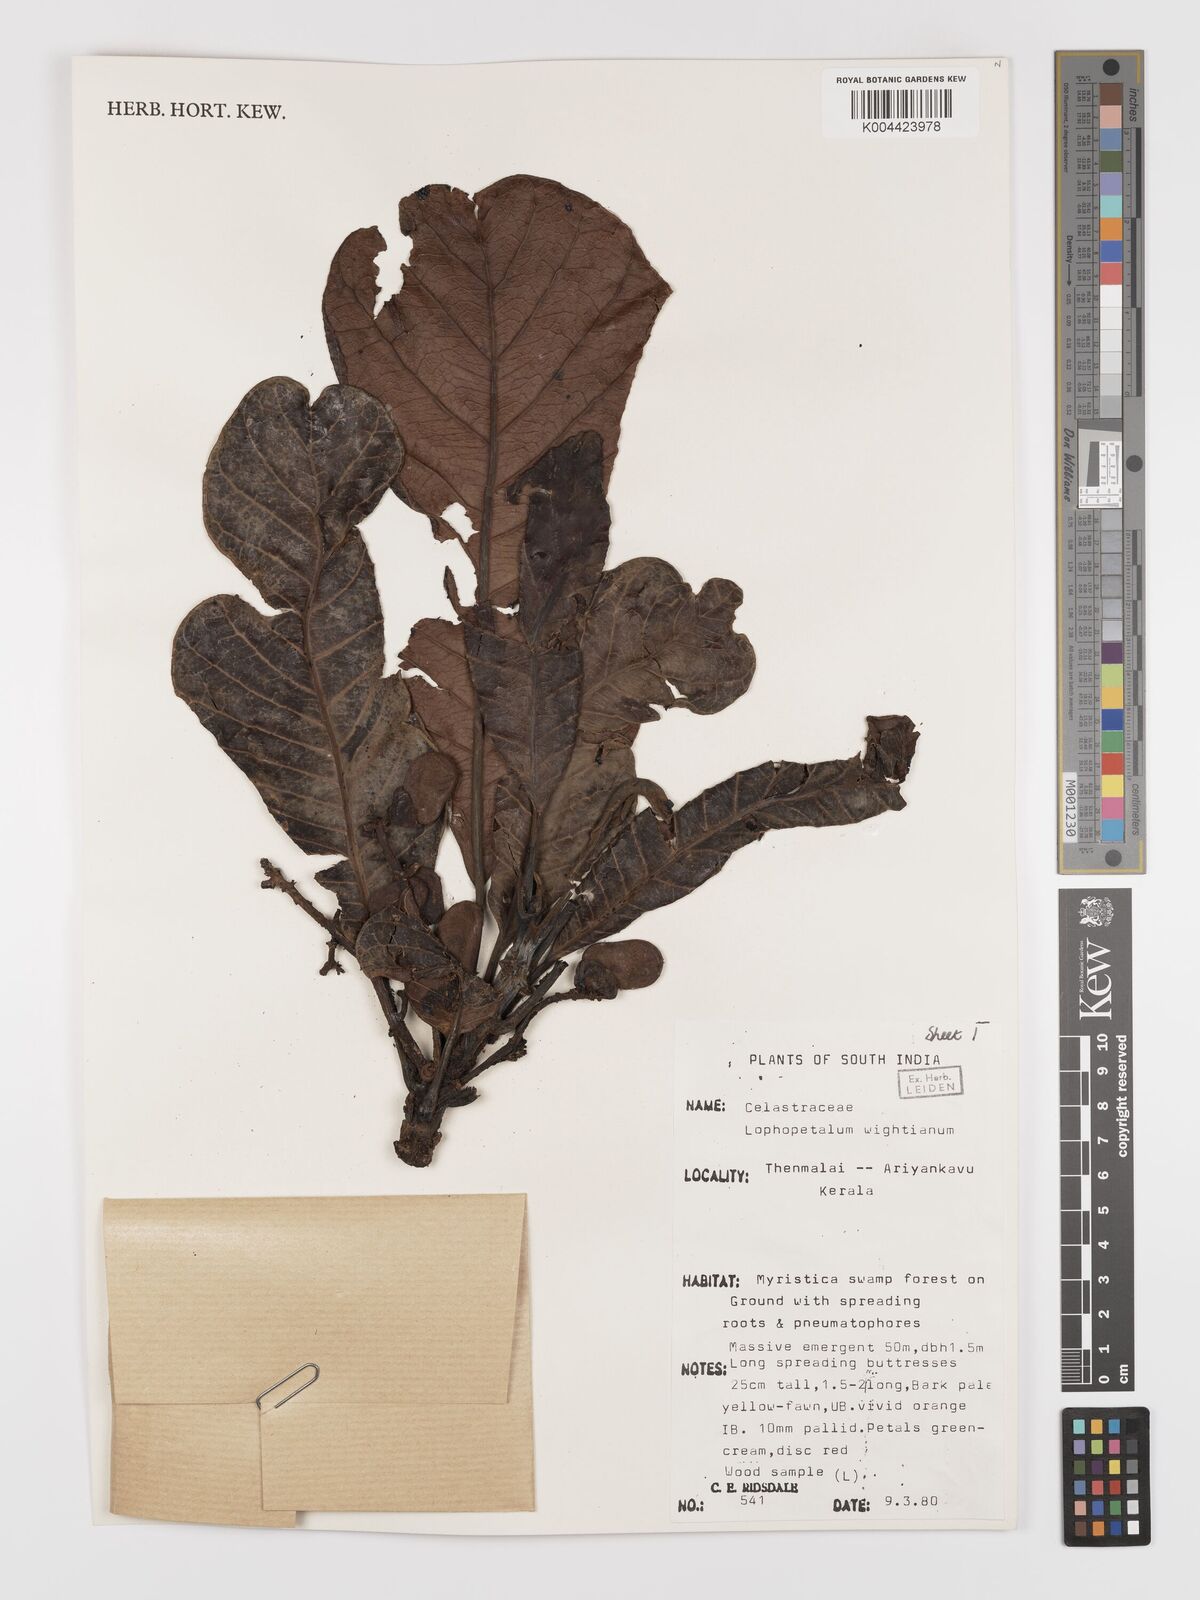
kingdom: Plantae
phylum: Tracheophyta
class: Magnoliopsida
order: Celastrales
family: Celastraceae
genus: Lophopetalum
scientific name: Lophopetalum wightianum
